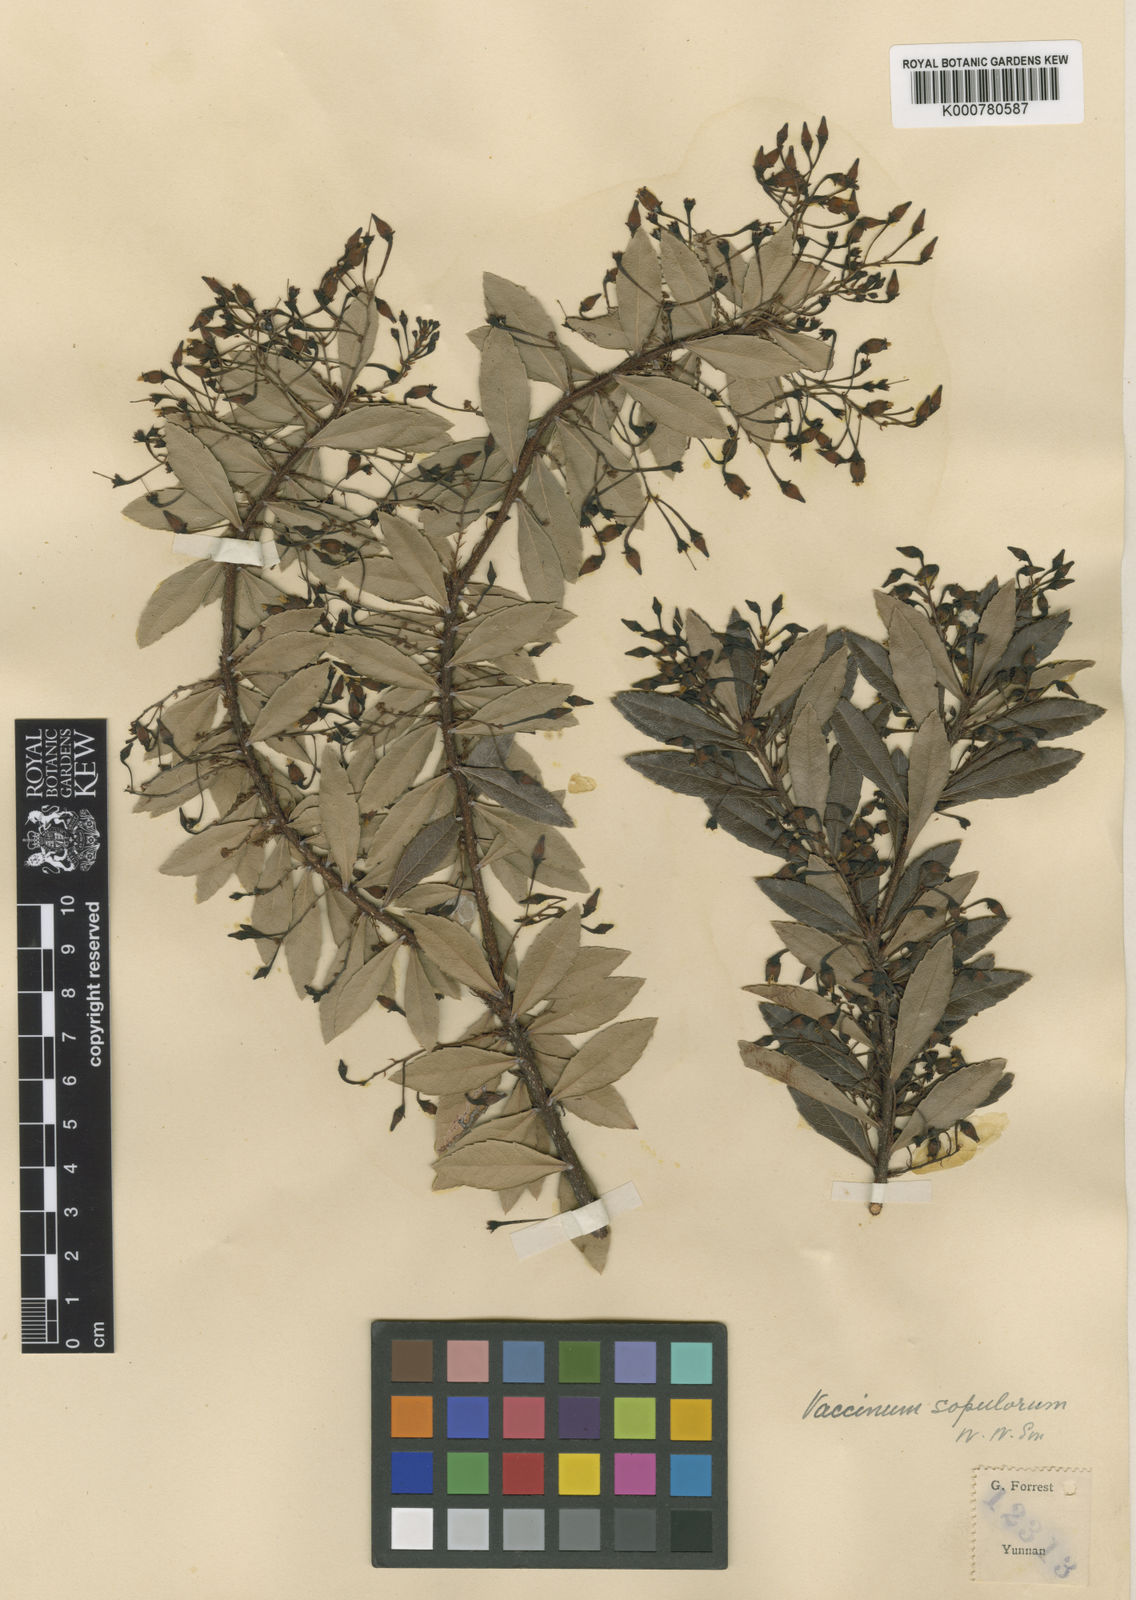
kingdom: Plantae
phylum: Tracheophyta
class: Magnoliopsida
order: Ericales
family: Ericaceae
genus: Vaccinium
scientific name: Vaccinium scopulorum
